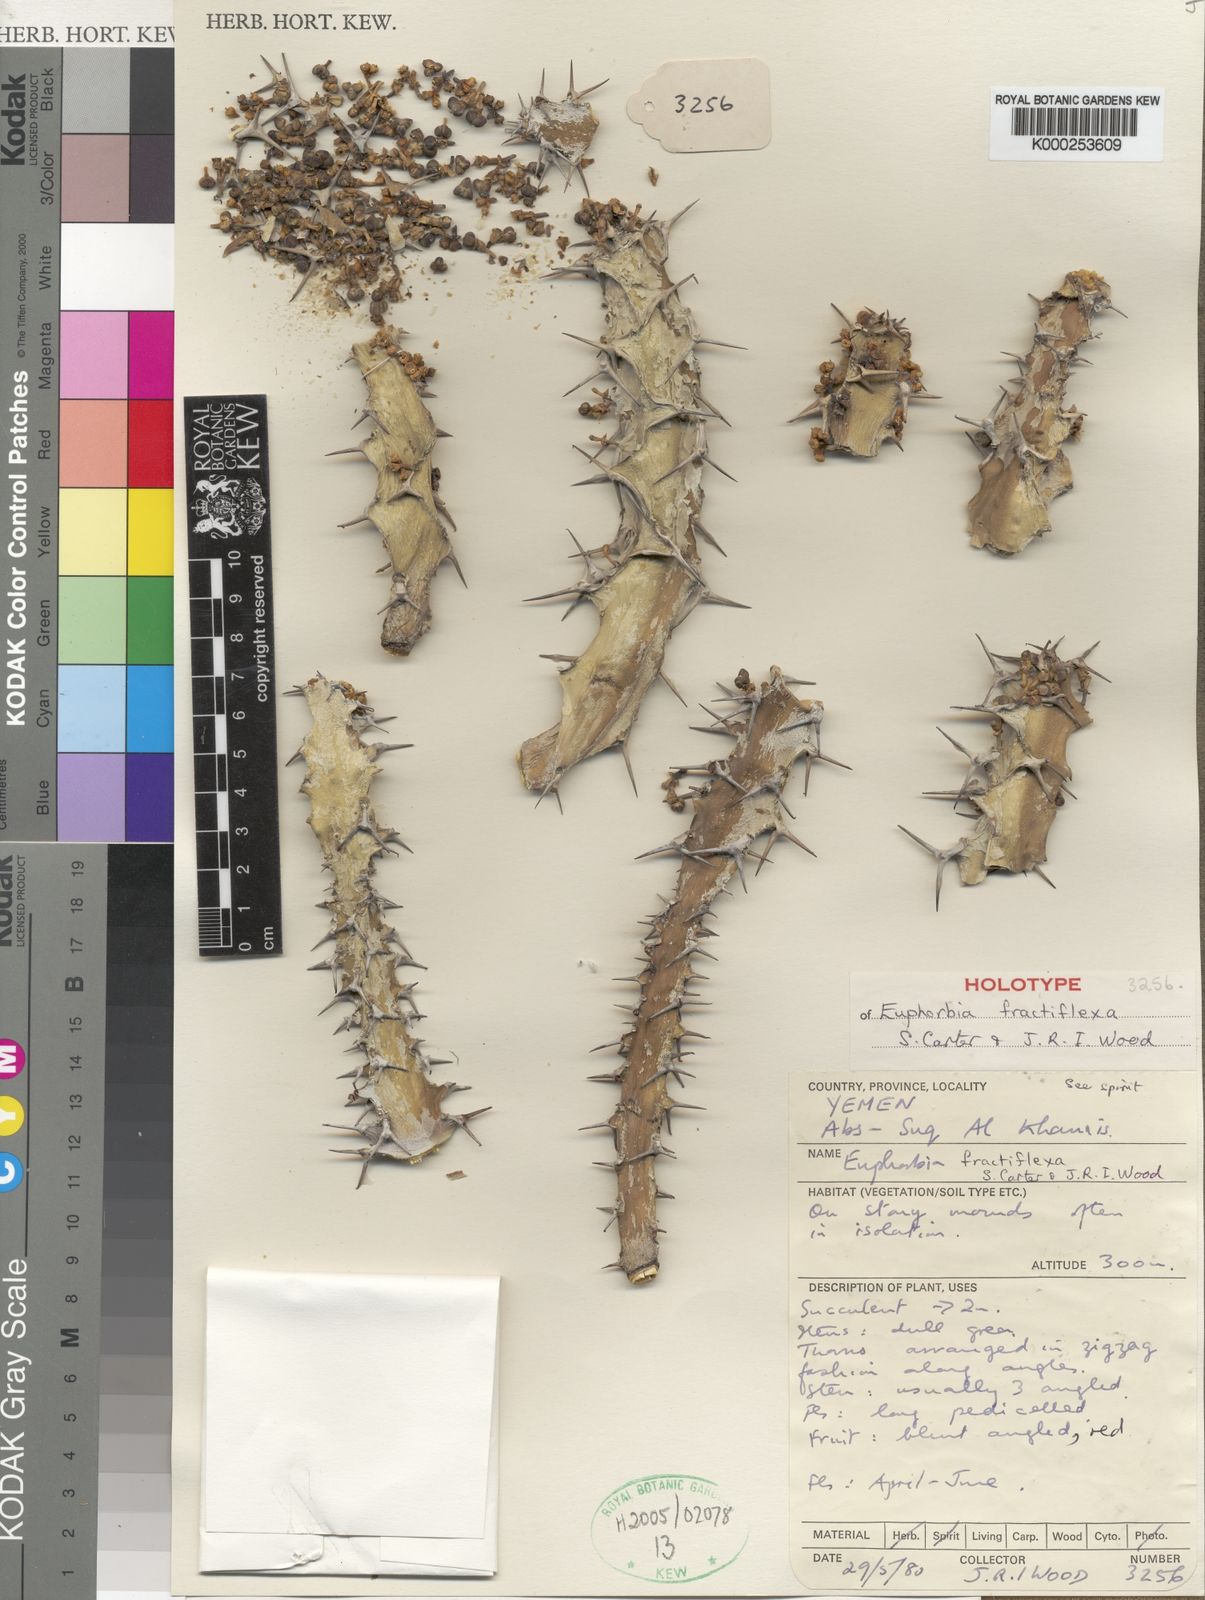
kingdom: Plantae
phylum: Tracheophyta
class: Magnoliopsida
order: Malpighiales
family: Euphorbiaceae
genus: Euphorbia
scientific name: Euphorbia fractiflexa
